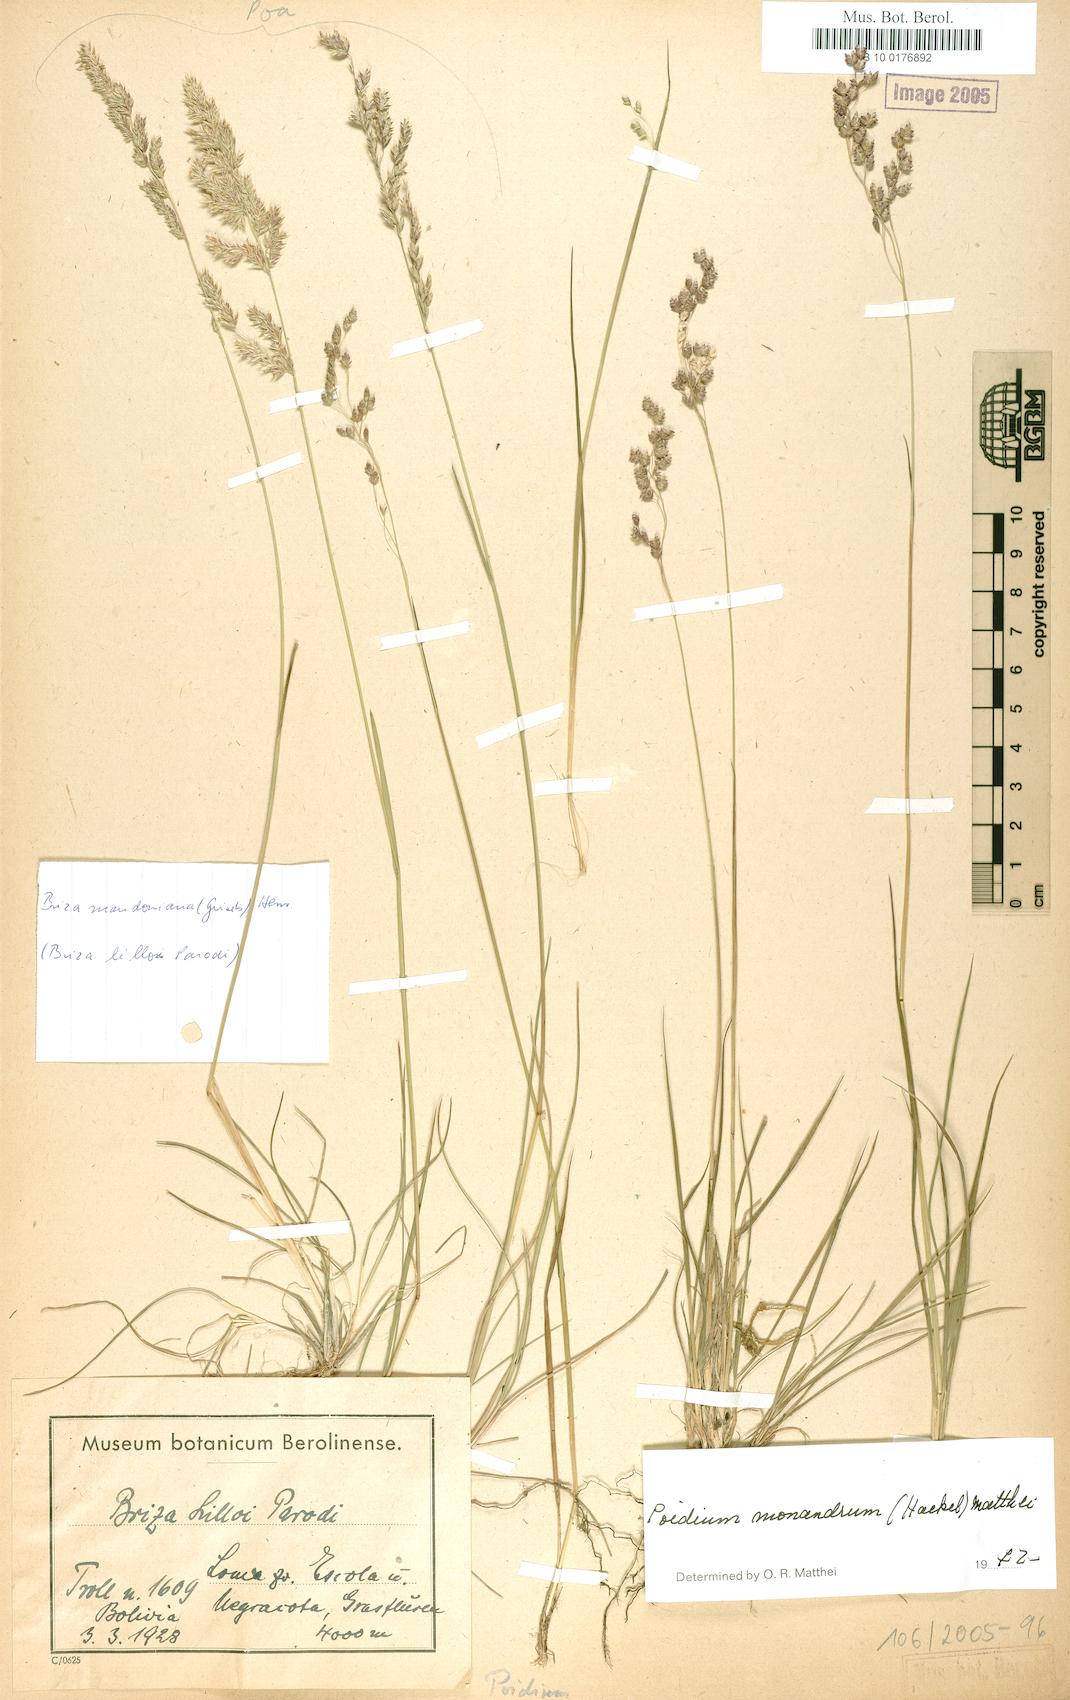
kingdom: Plantae
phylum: Tracheophyta
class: Liliopsida
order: Poales
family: Poaceae
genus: Poidium
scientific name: Poidium monandrum
